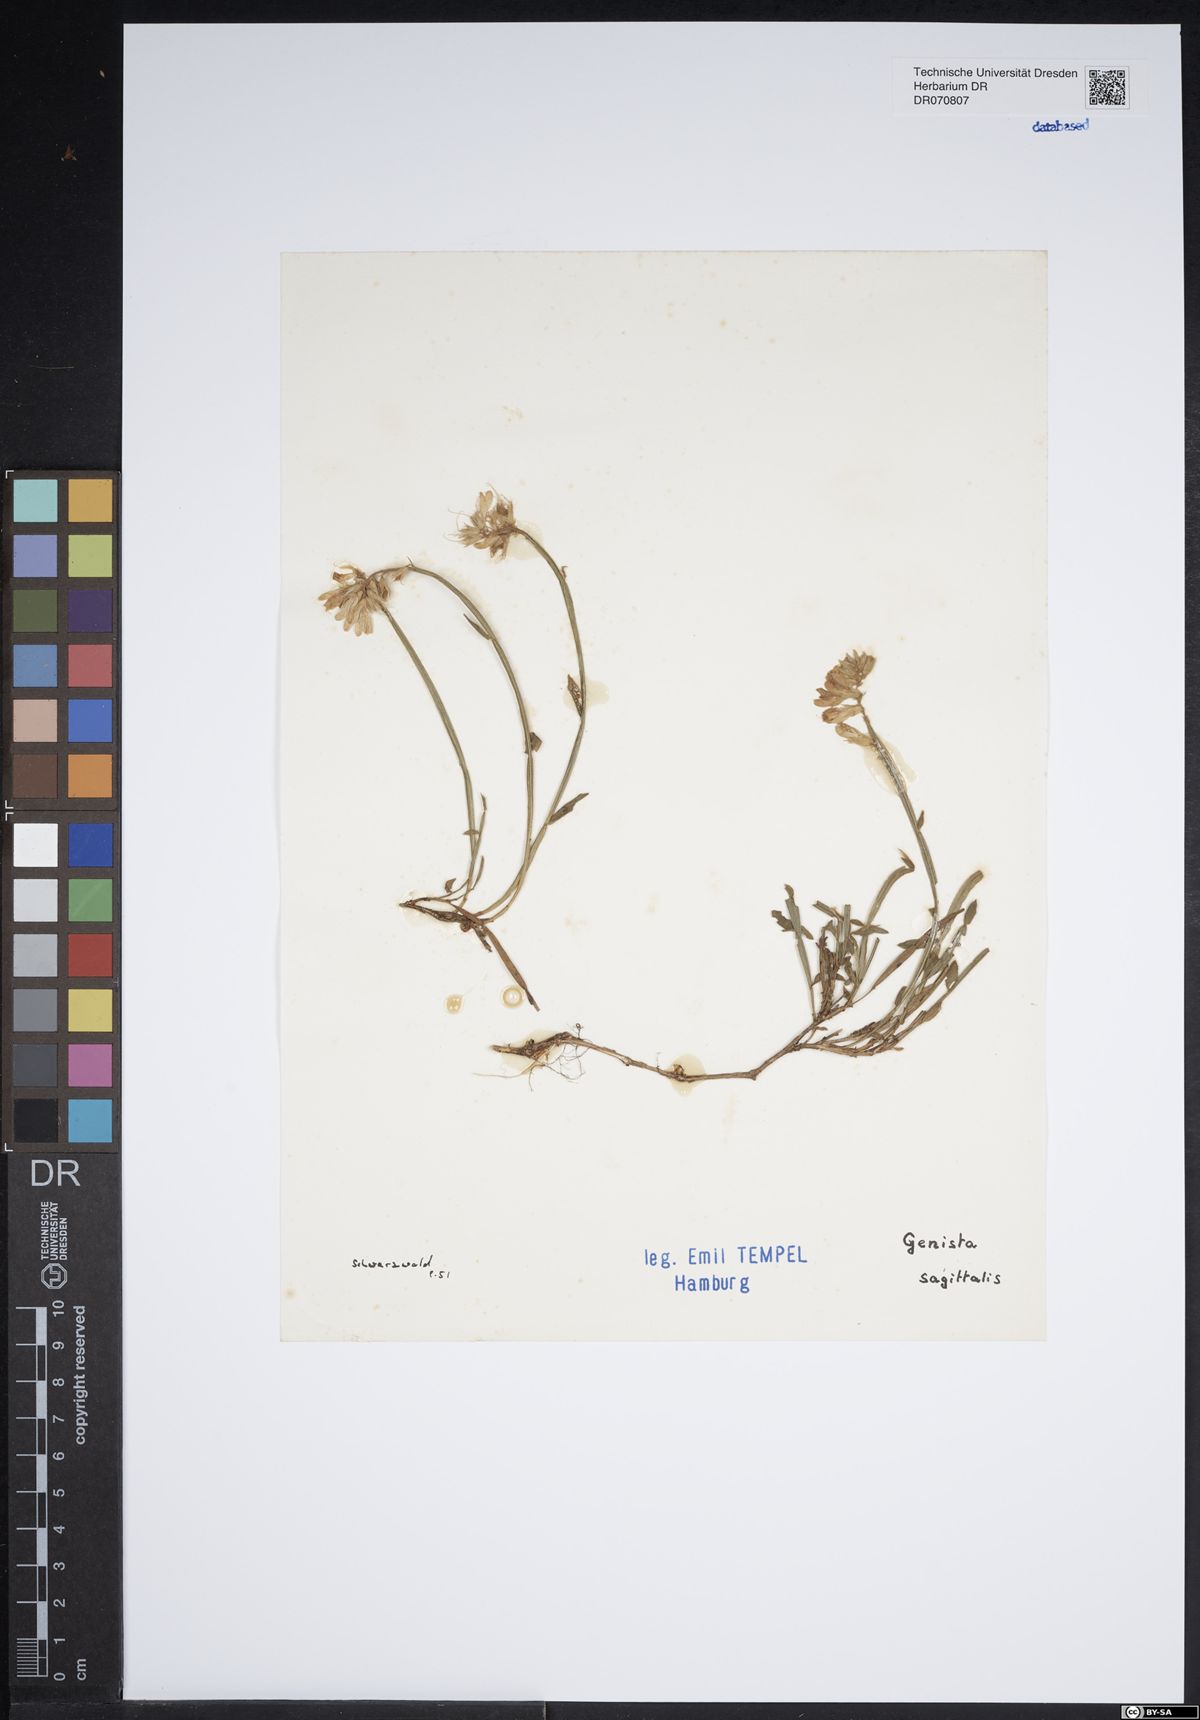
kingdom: Plantae
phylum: Tracheophyta
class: Magnoliopsida
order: Fabales
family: Fabaceae
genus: Genista
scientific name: Genista sagittalis
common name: Winged greenweed
